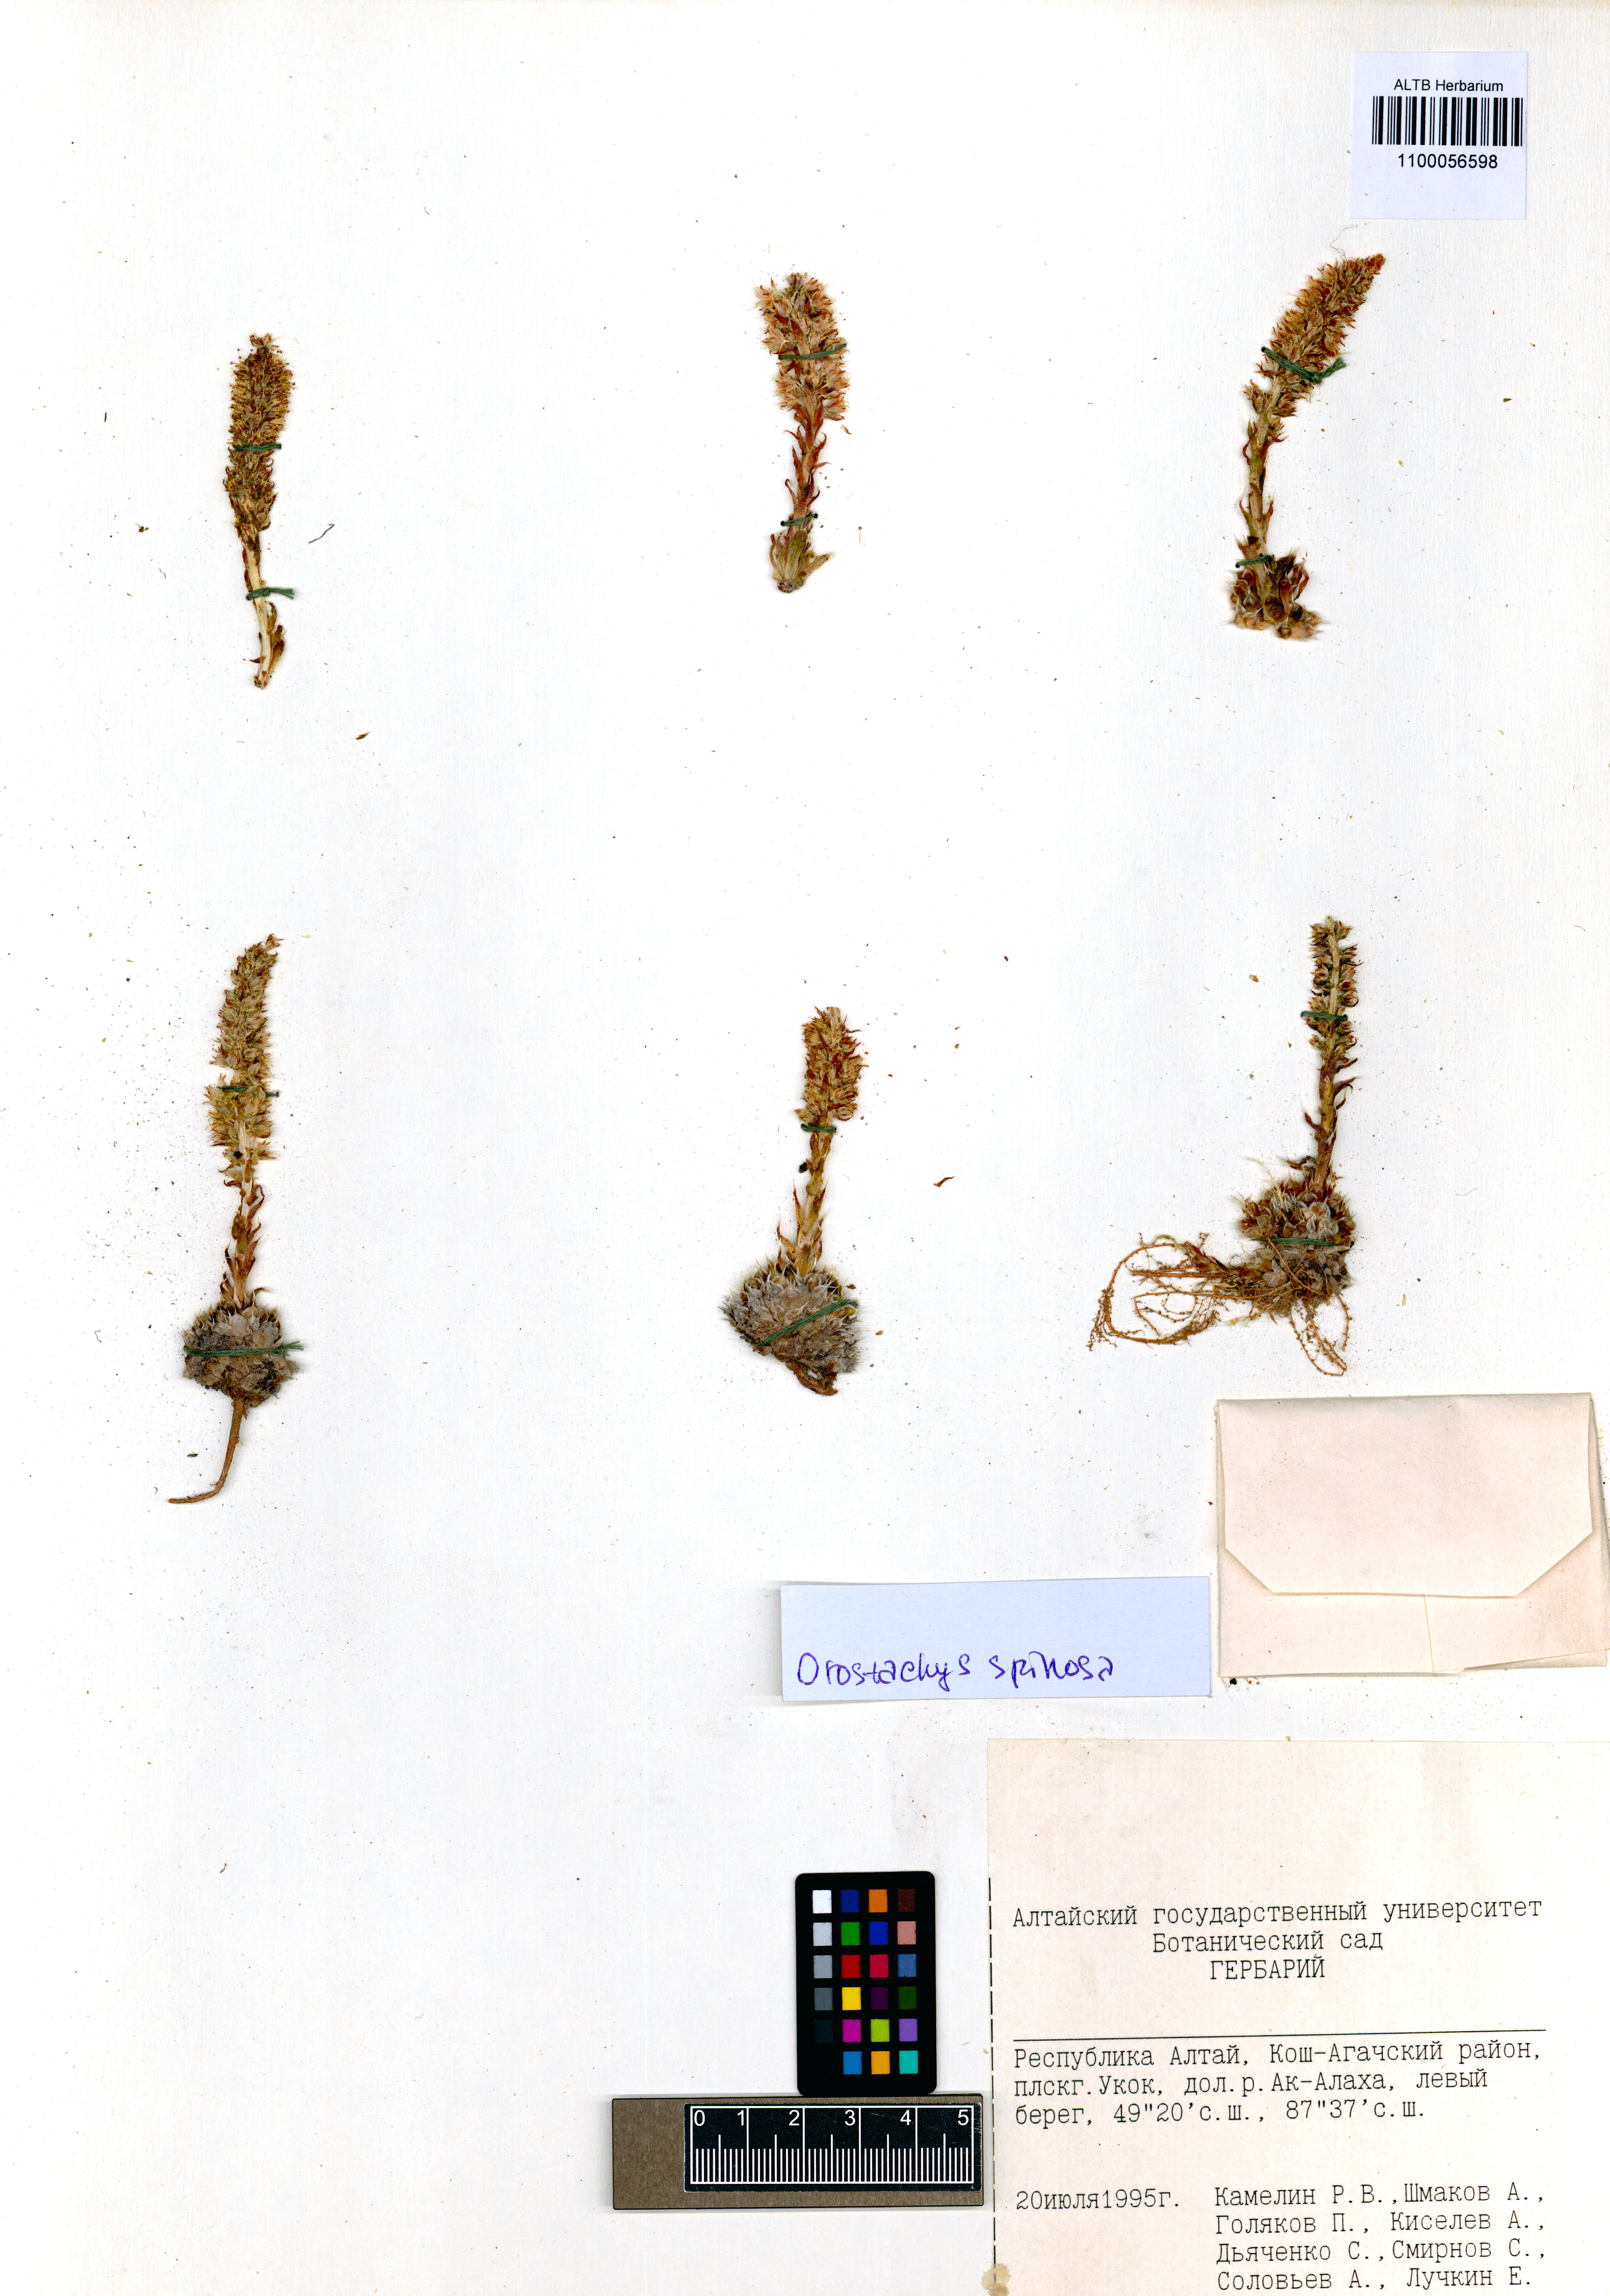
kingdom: Plantae
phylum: Tracheophyta
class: Magnoliopsida
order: Saxifragales
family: Crassulaceae
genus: Orostachys
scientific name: Orostachys spinosa
